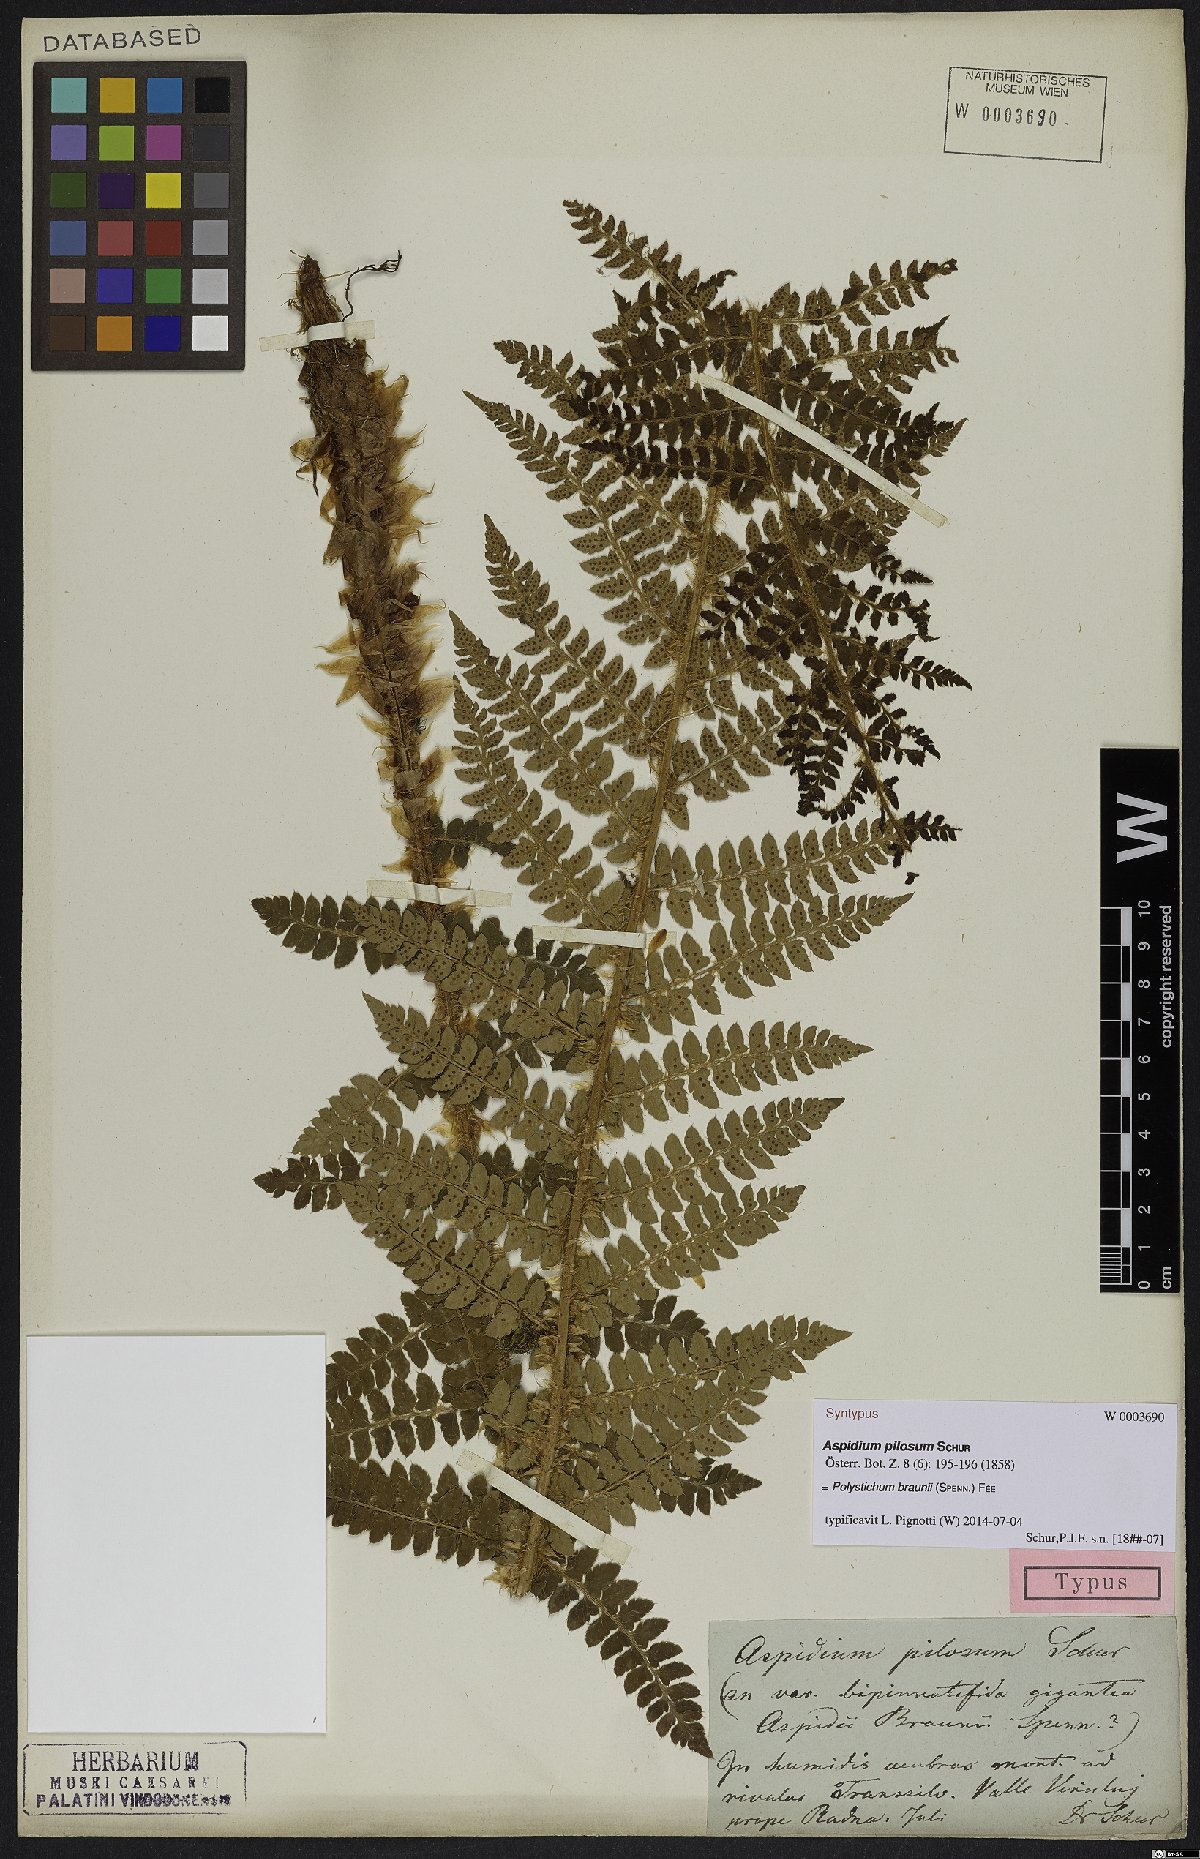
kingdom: Plantae
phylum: Tracheophyta
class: Polypodiopsida
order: Polypodiales
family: Dryopteridaceae
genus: Polystichum
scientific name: Polystichum braunii
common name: Braun's holly fern
